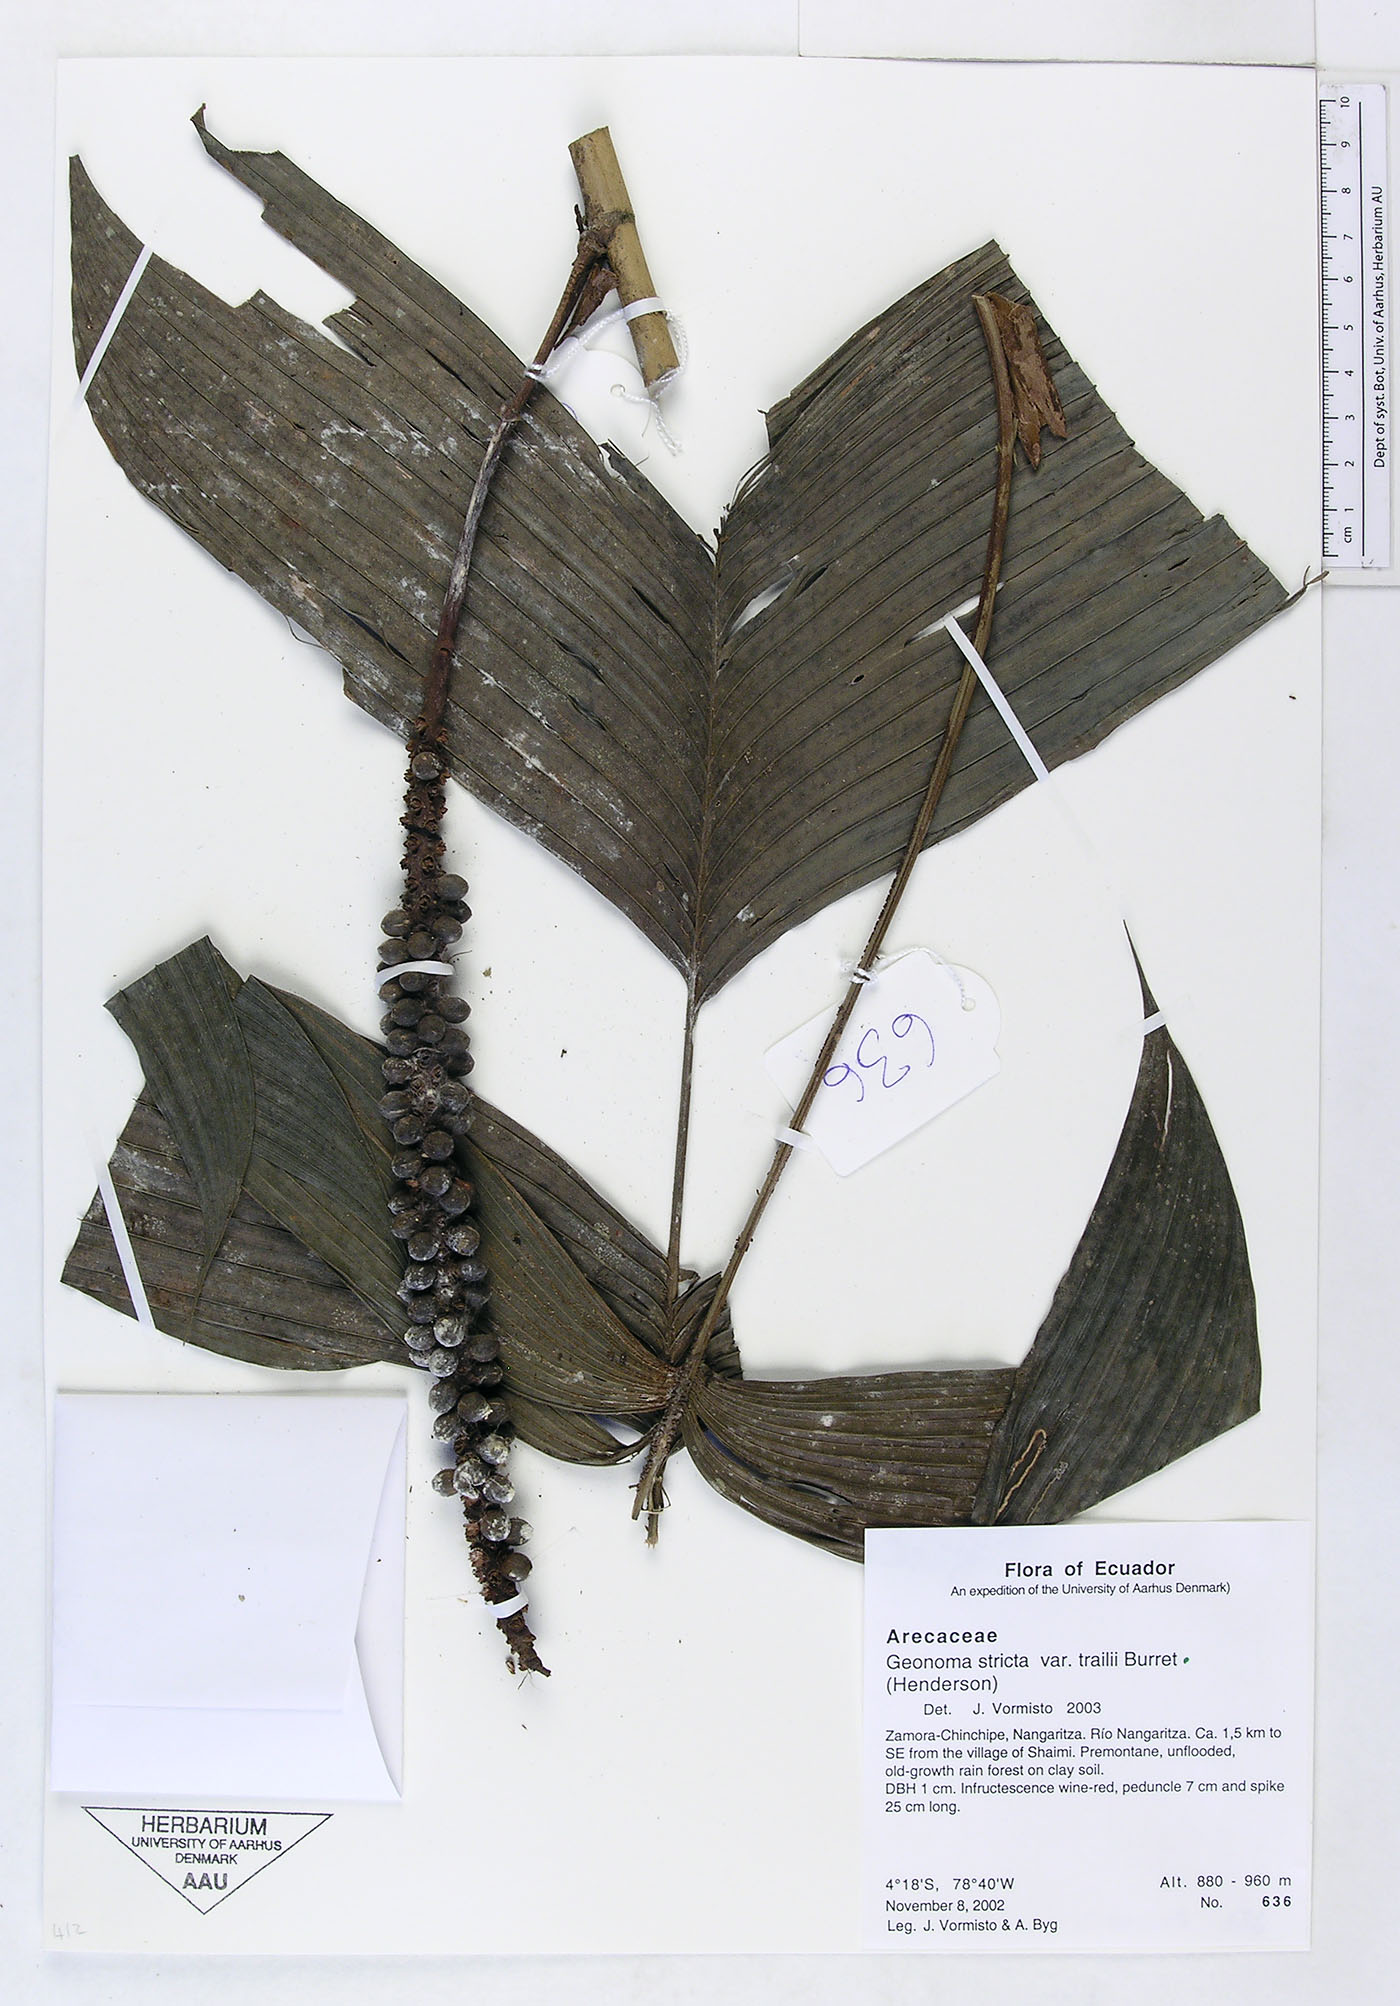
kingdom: Plantae
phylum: Tracheophyta
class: Liliopsida
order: Arecales
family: Arecaceae
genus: Geonoma
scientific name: Geonoma stricta
